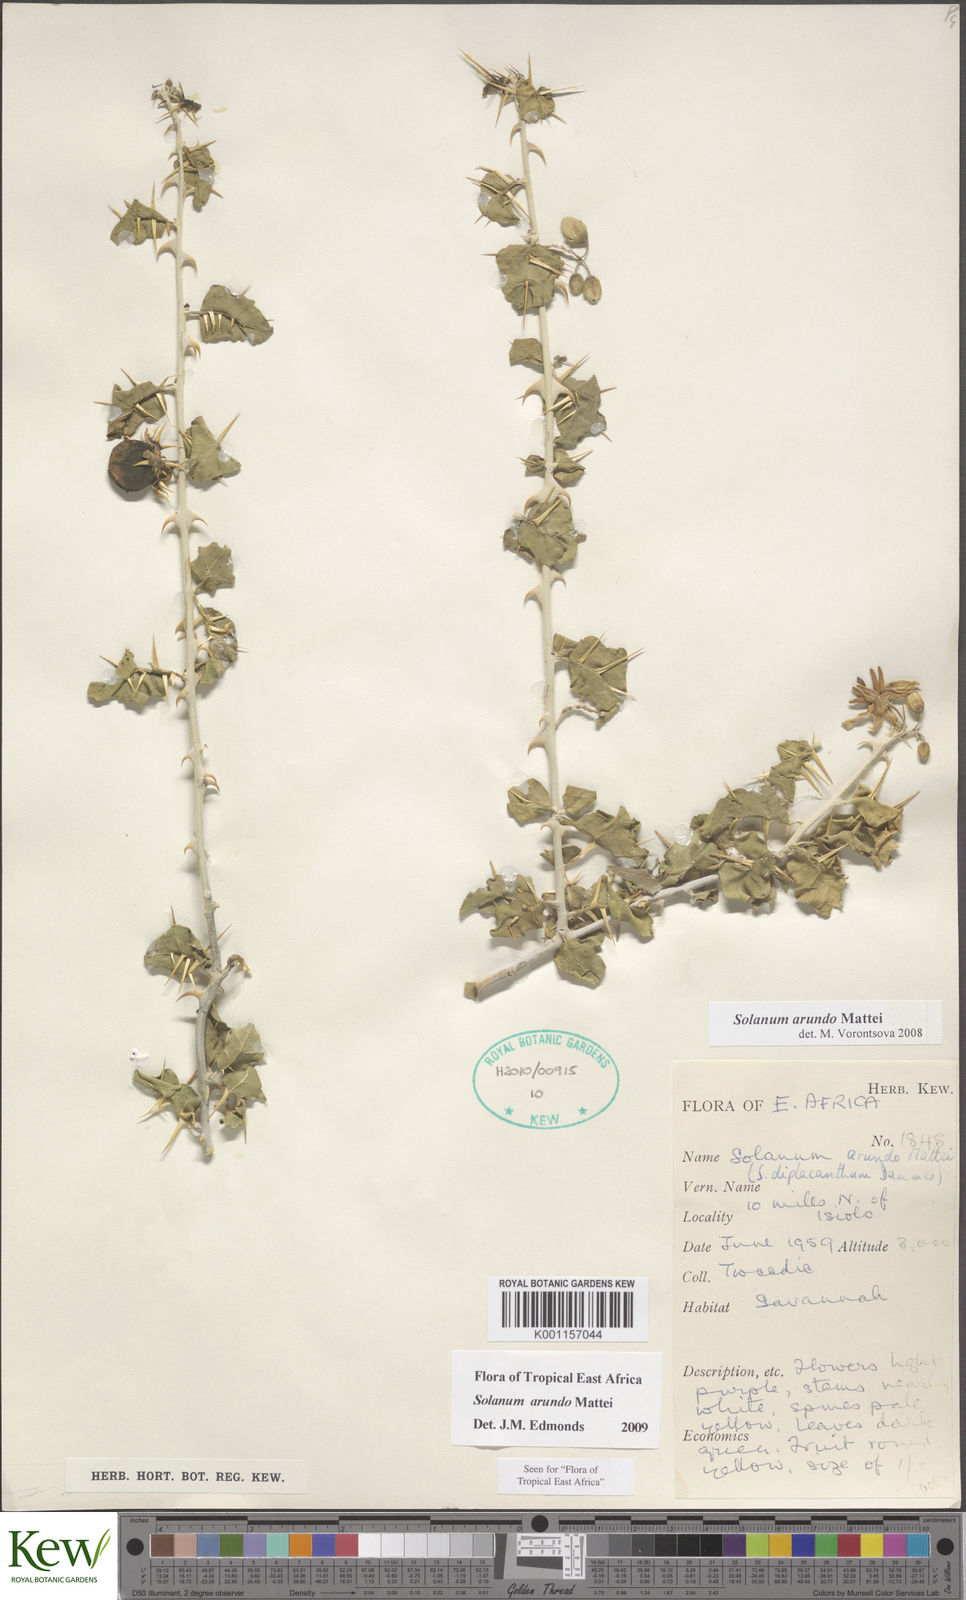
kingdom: Plantae
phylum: Tracheophyta
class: Magnoliopsida
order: Solanales
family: Solanaceae
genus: Solanum
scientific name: Solanum arundo
